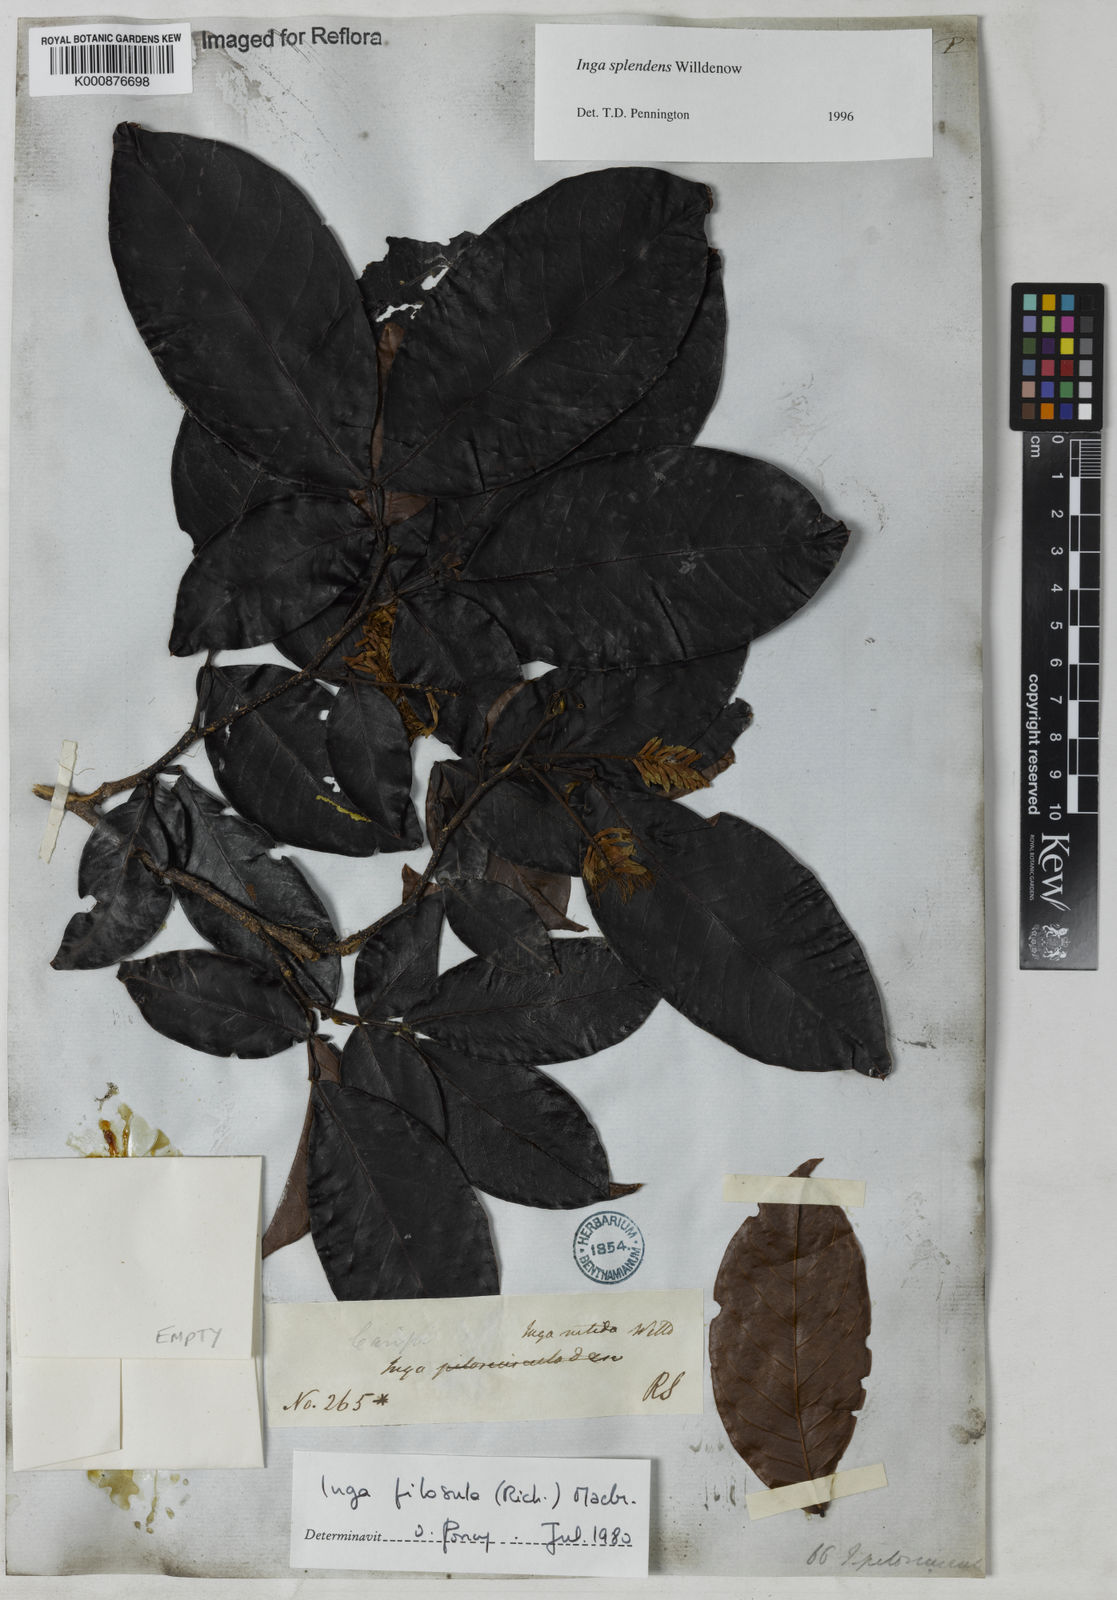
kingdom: Plantae
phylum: Tracheophyta
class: Magnoliopsida
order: Fabales
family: Fabaceae
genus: Inga
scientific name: Inga splendens
